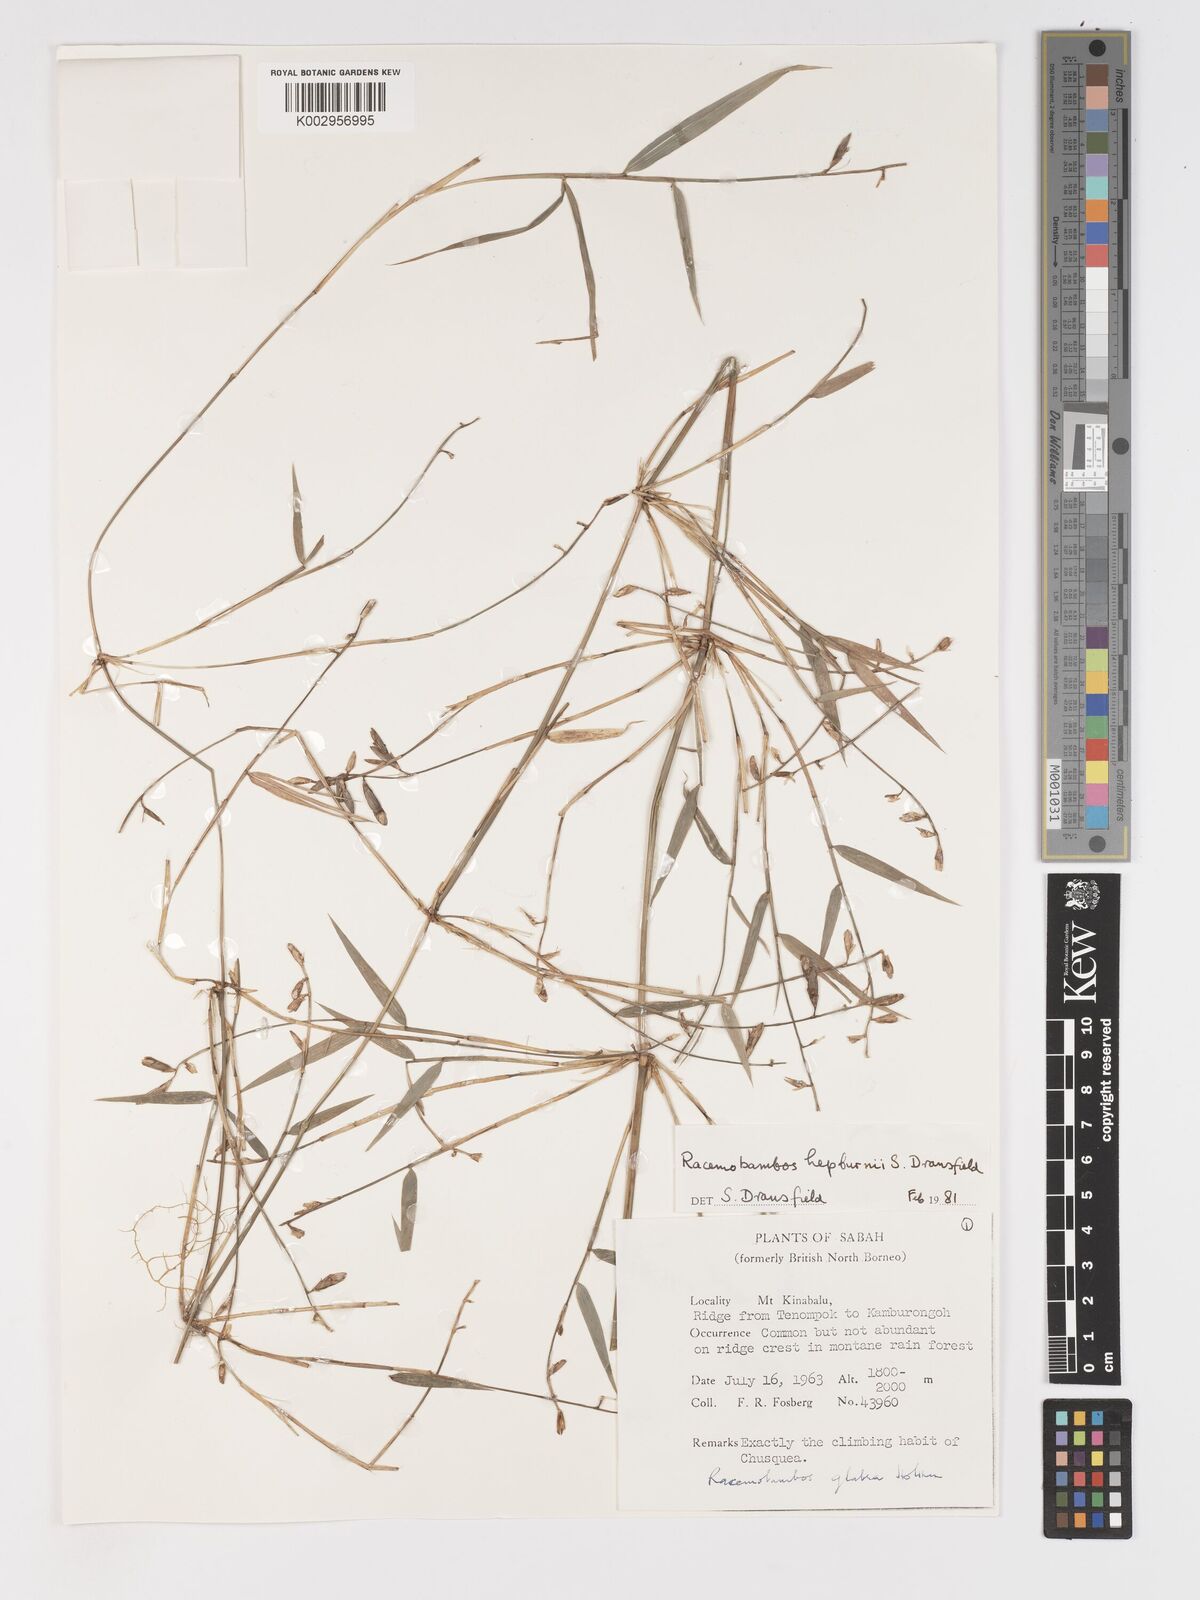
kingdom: Plantae
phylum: Tracheophyta
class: Liliopsida
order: Poales
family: Poaceae
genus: Racemobambos
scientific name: Racemobambos
